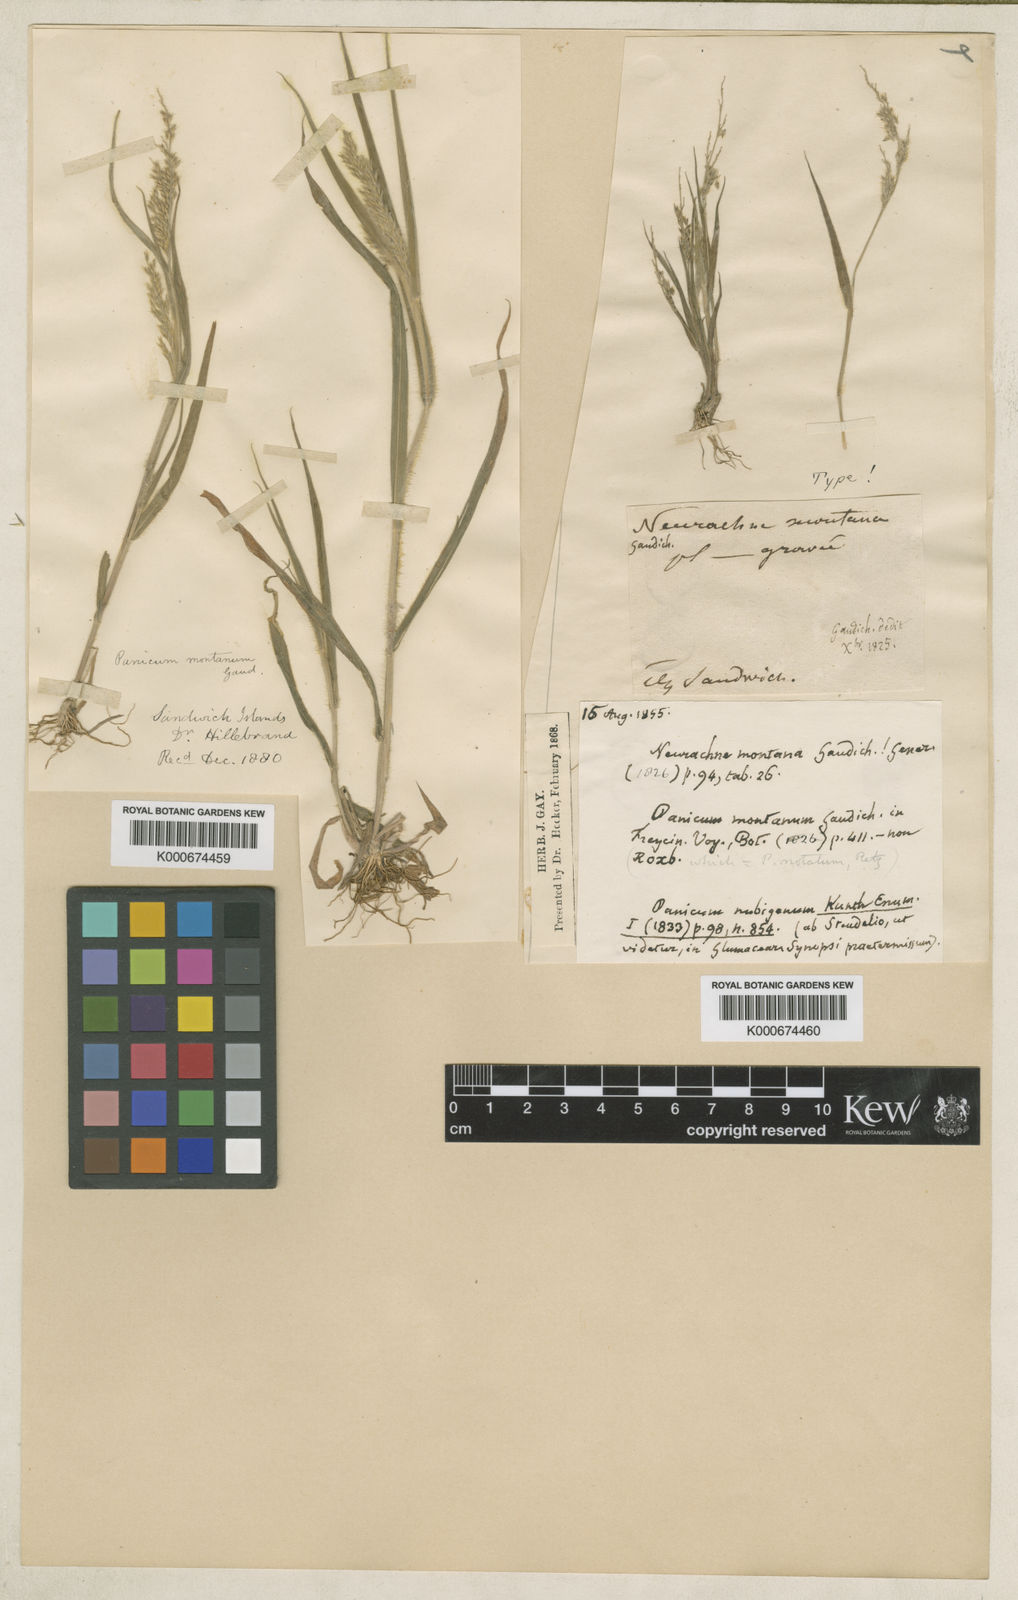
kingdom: Plantae
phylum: Tracheophyta
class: Liliopsida
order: Poales
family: Poaceae
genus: Panicum
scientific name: Panicum torridum
